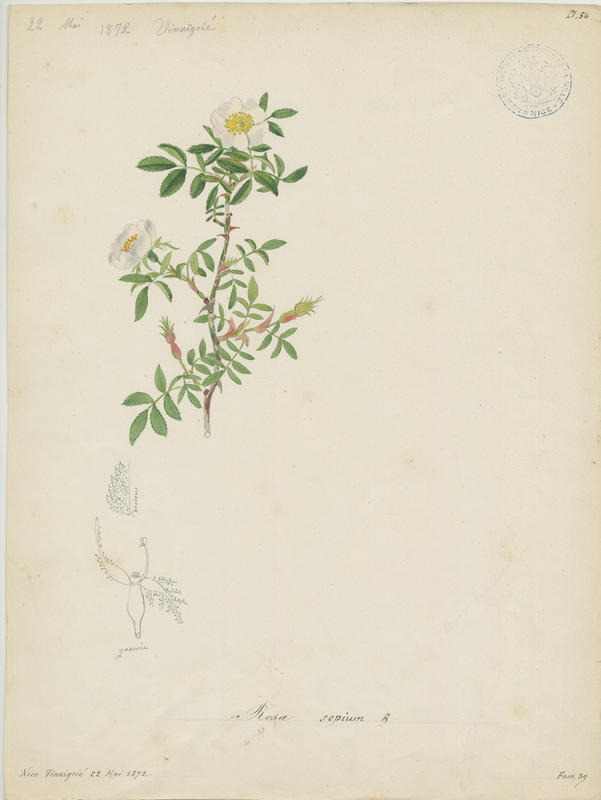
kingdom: Plantae
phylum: Tracheophyta
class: Magnoliopsida
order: Rosales
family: Rosaceae
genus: Rosa
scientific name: Rosa agrestis
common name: Fieldbriar
